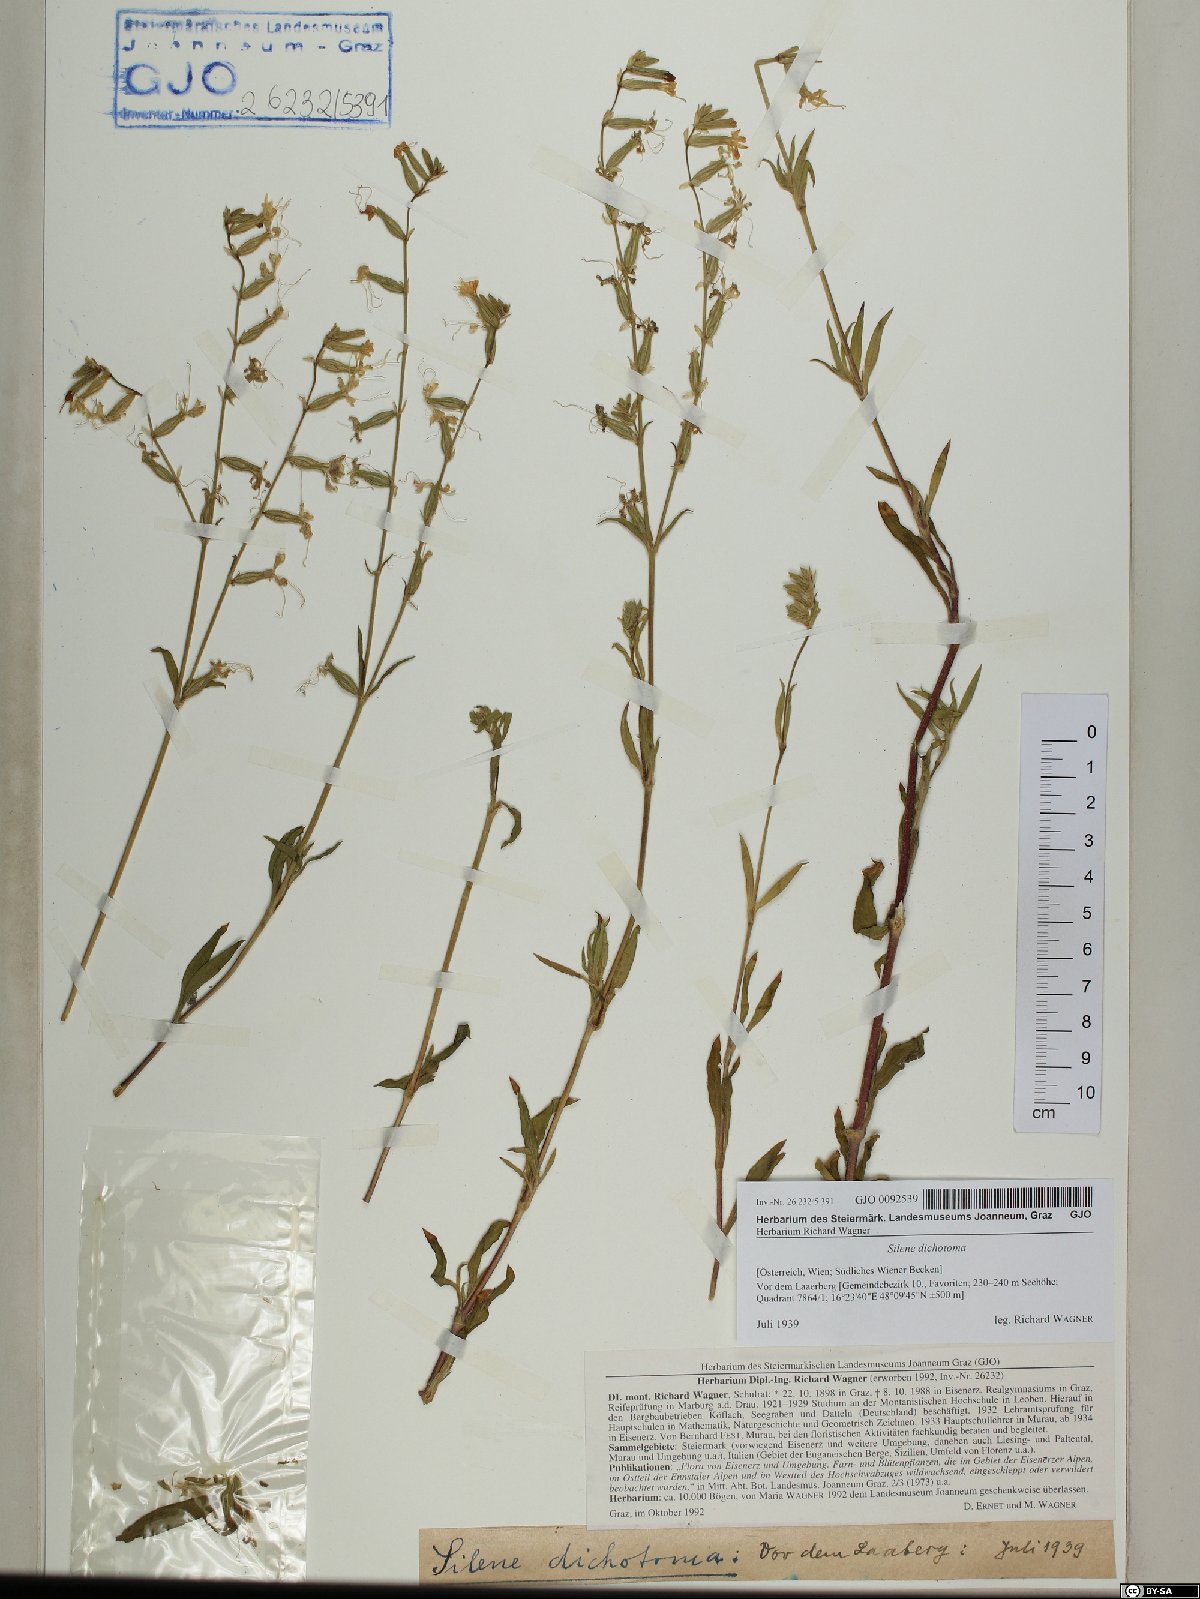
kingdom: Plantae
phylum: Tracheophyta
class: Magnoliopsida
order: Caryophyllales
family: Caryophyllaceae
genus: Silene
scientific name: Silene dichotoma
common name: Forked catchfly
